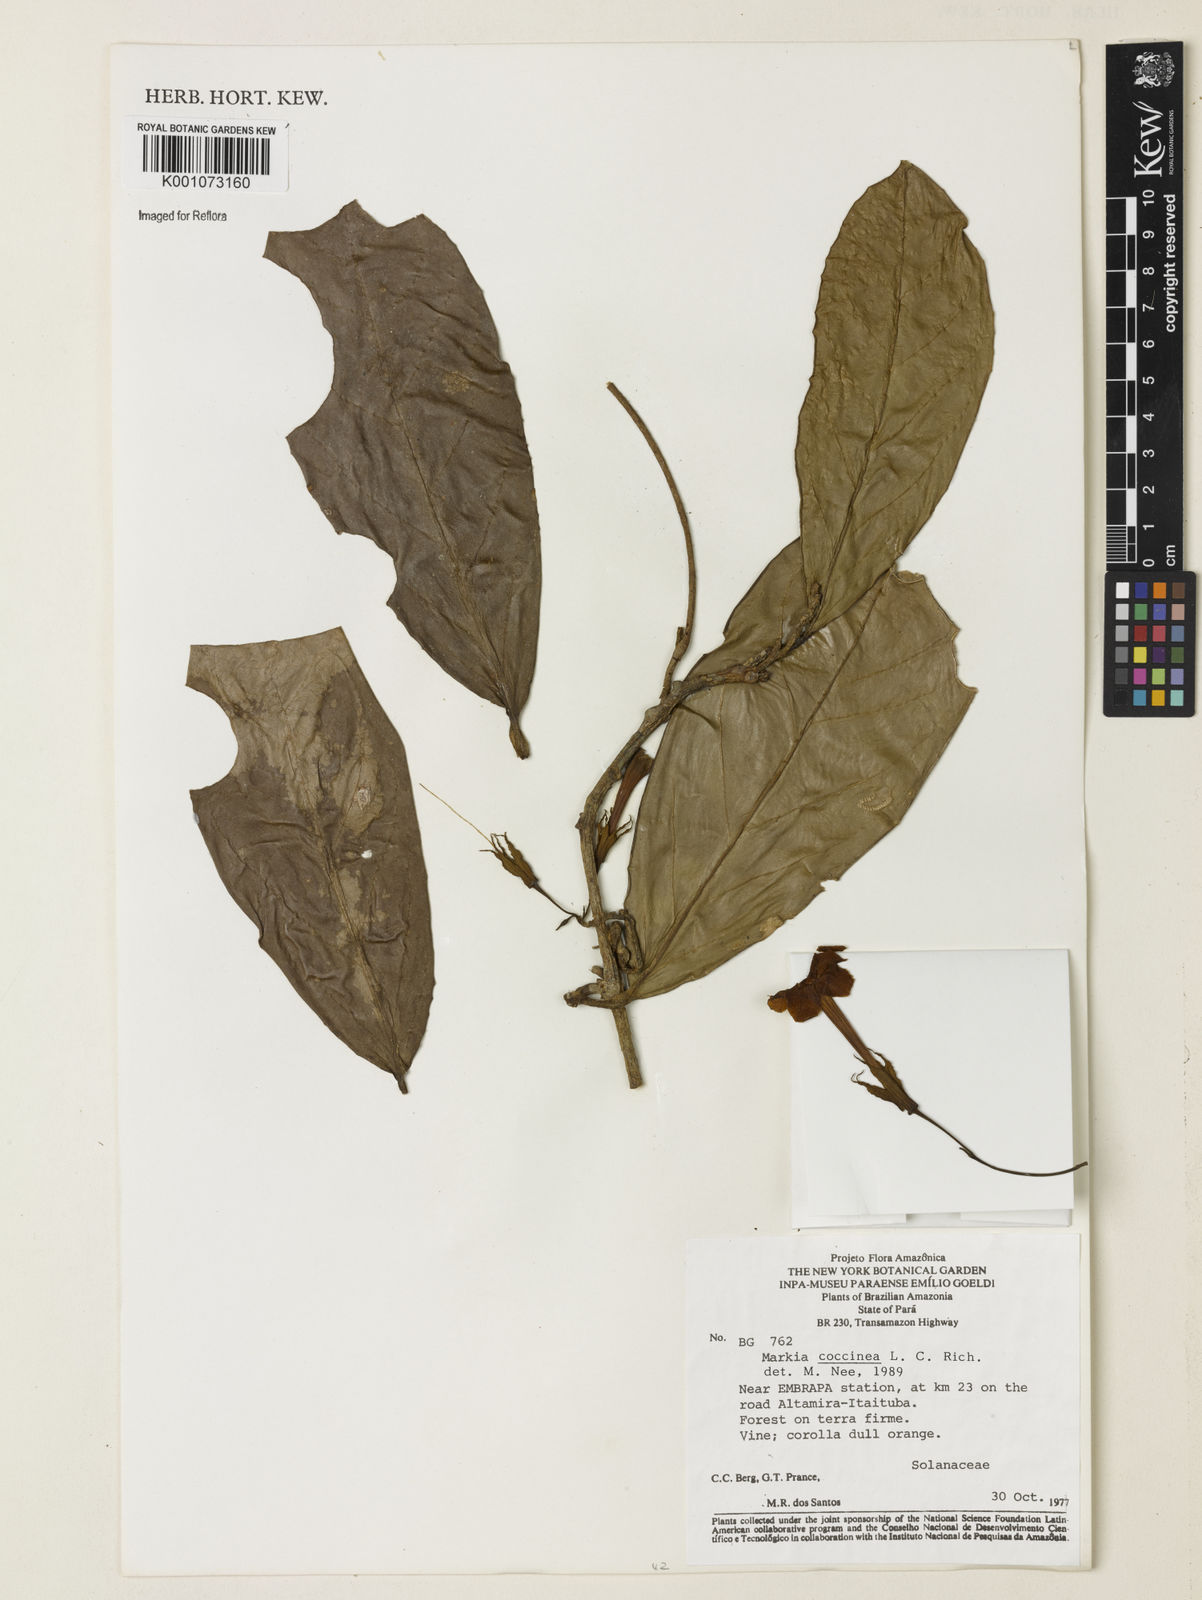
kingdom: Plantae
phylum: Tracheophyta
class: Magnoliopsida
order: Solanales
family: Solanaceae
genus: Markea
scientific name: Markea coccinea
